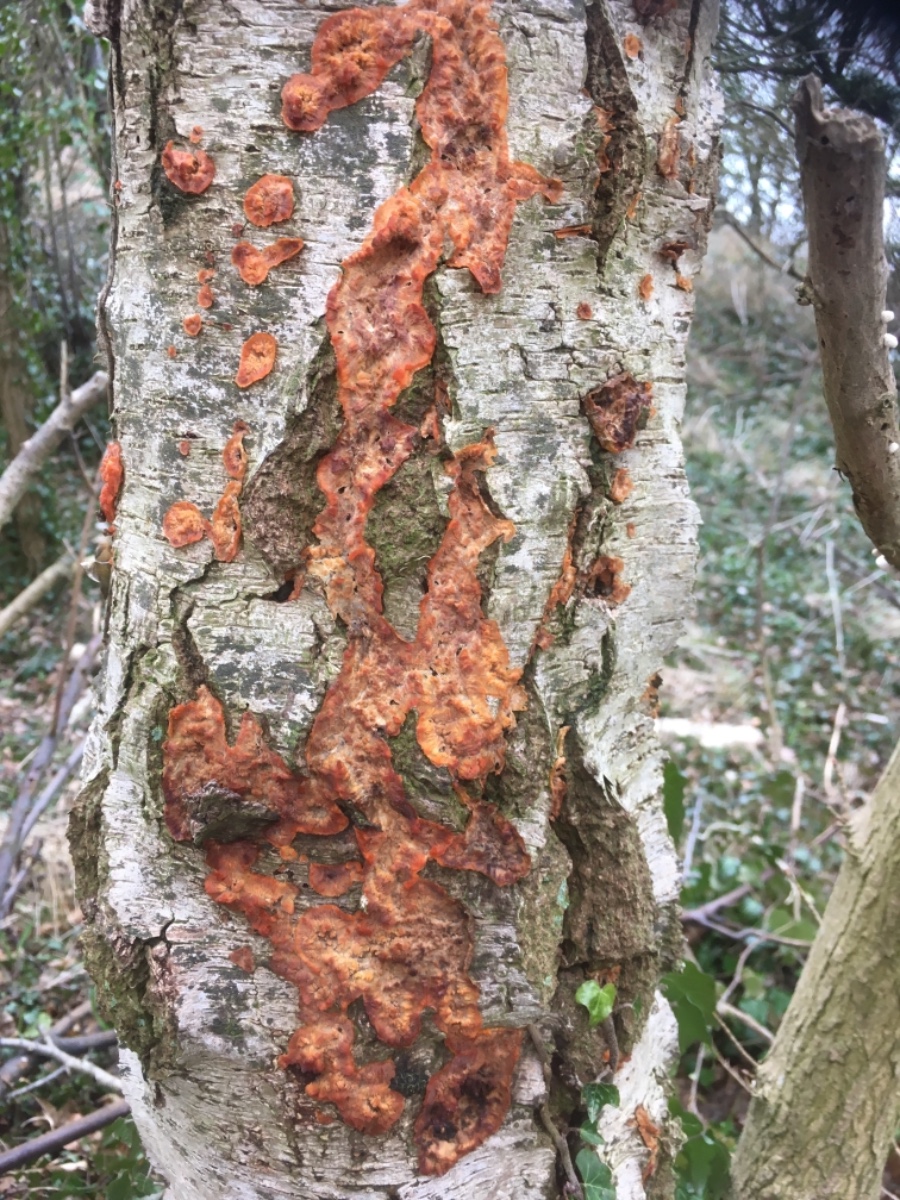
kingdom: Fungi
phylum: Basidiomycota
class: Agaricomycetes
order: Polyporales
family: Meruliaceae
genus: Phlebia
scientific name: Phlebia radiata
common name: stråle-åresvamp
